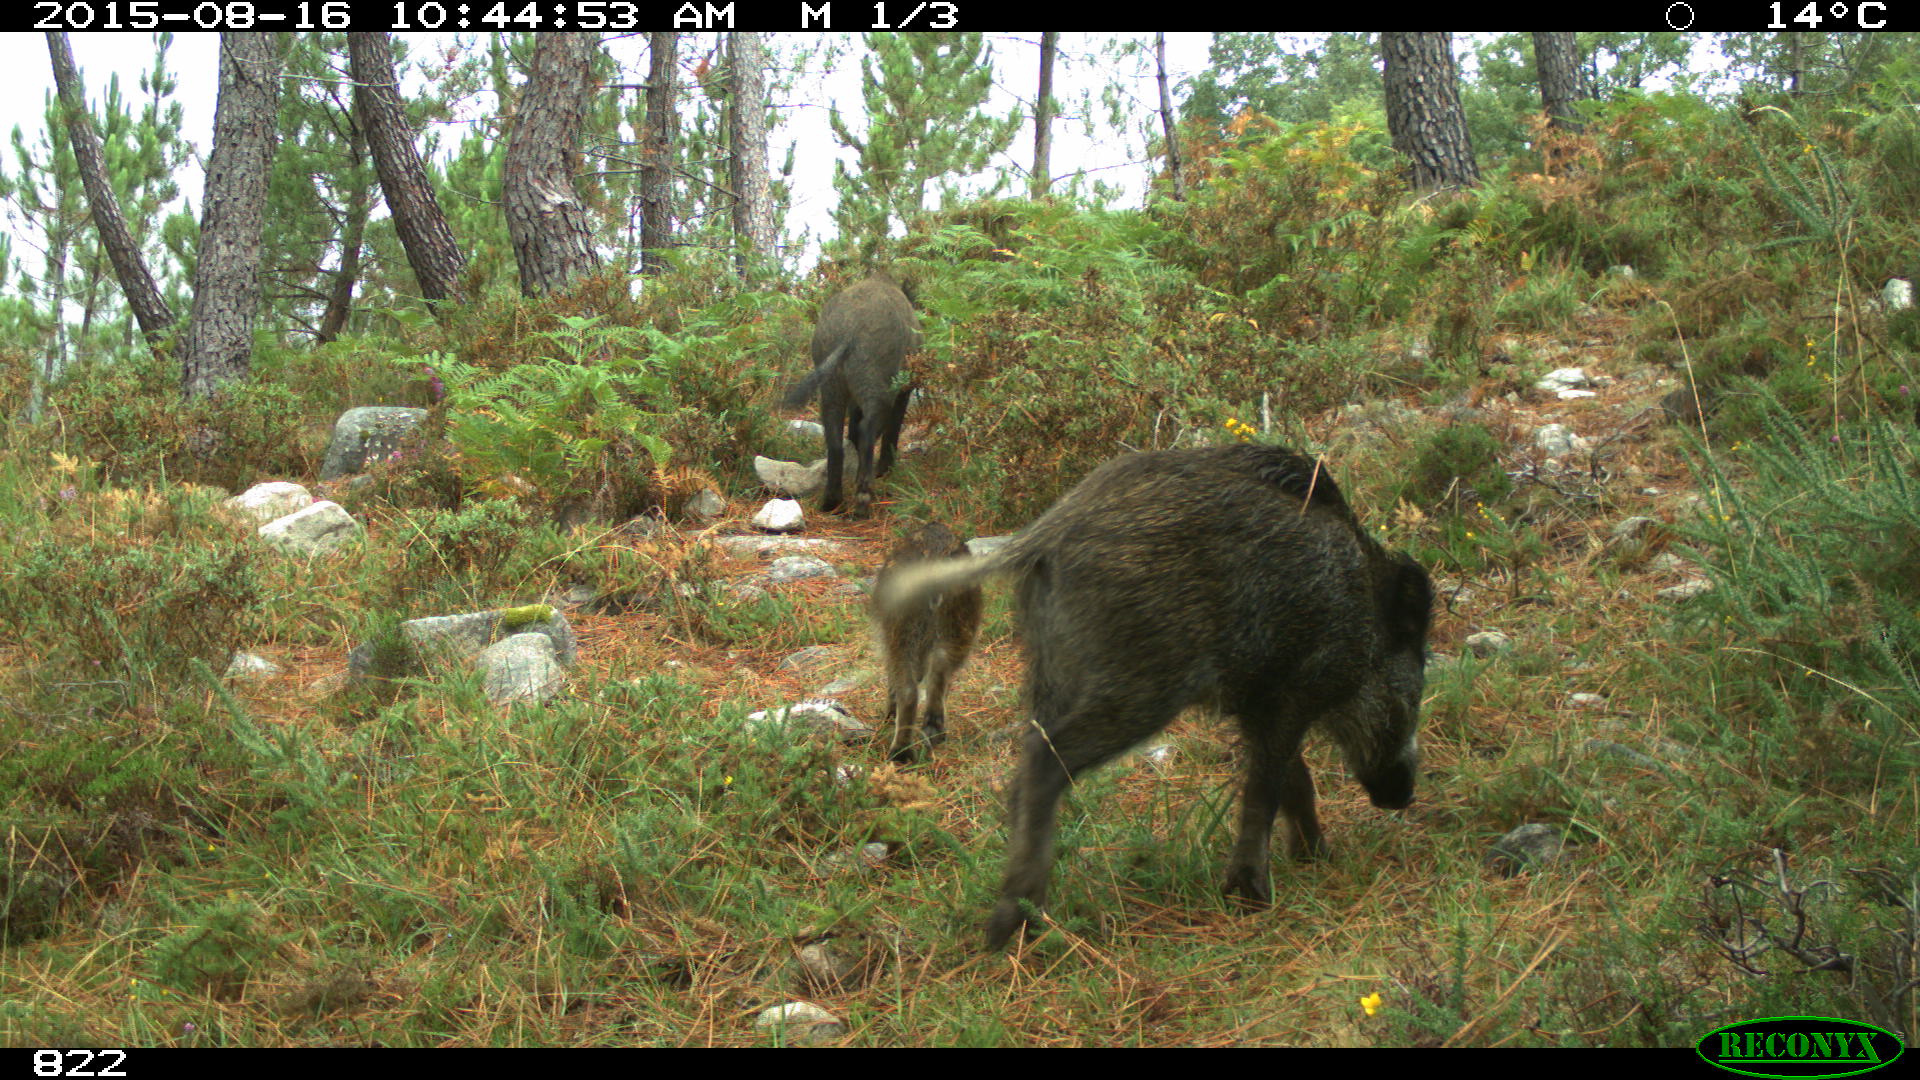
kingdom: Animalia
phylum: Chordata
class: Mammalia
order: Artiodactyla
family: Suidae
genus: Sus
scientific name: Sus scrofa
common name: Wild boar
